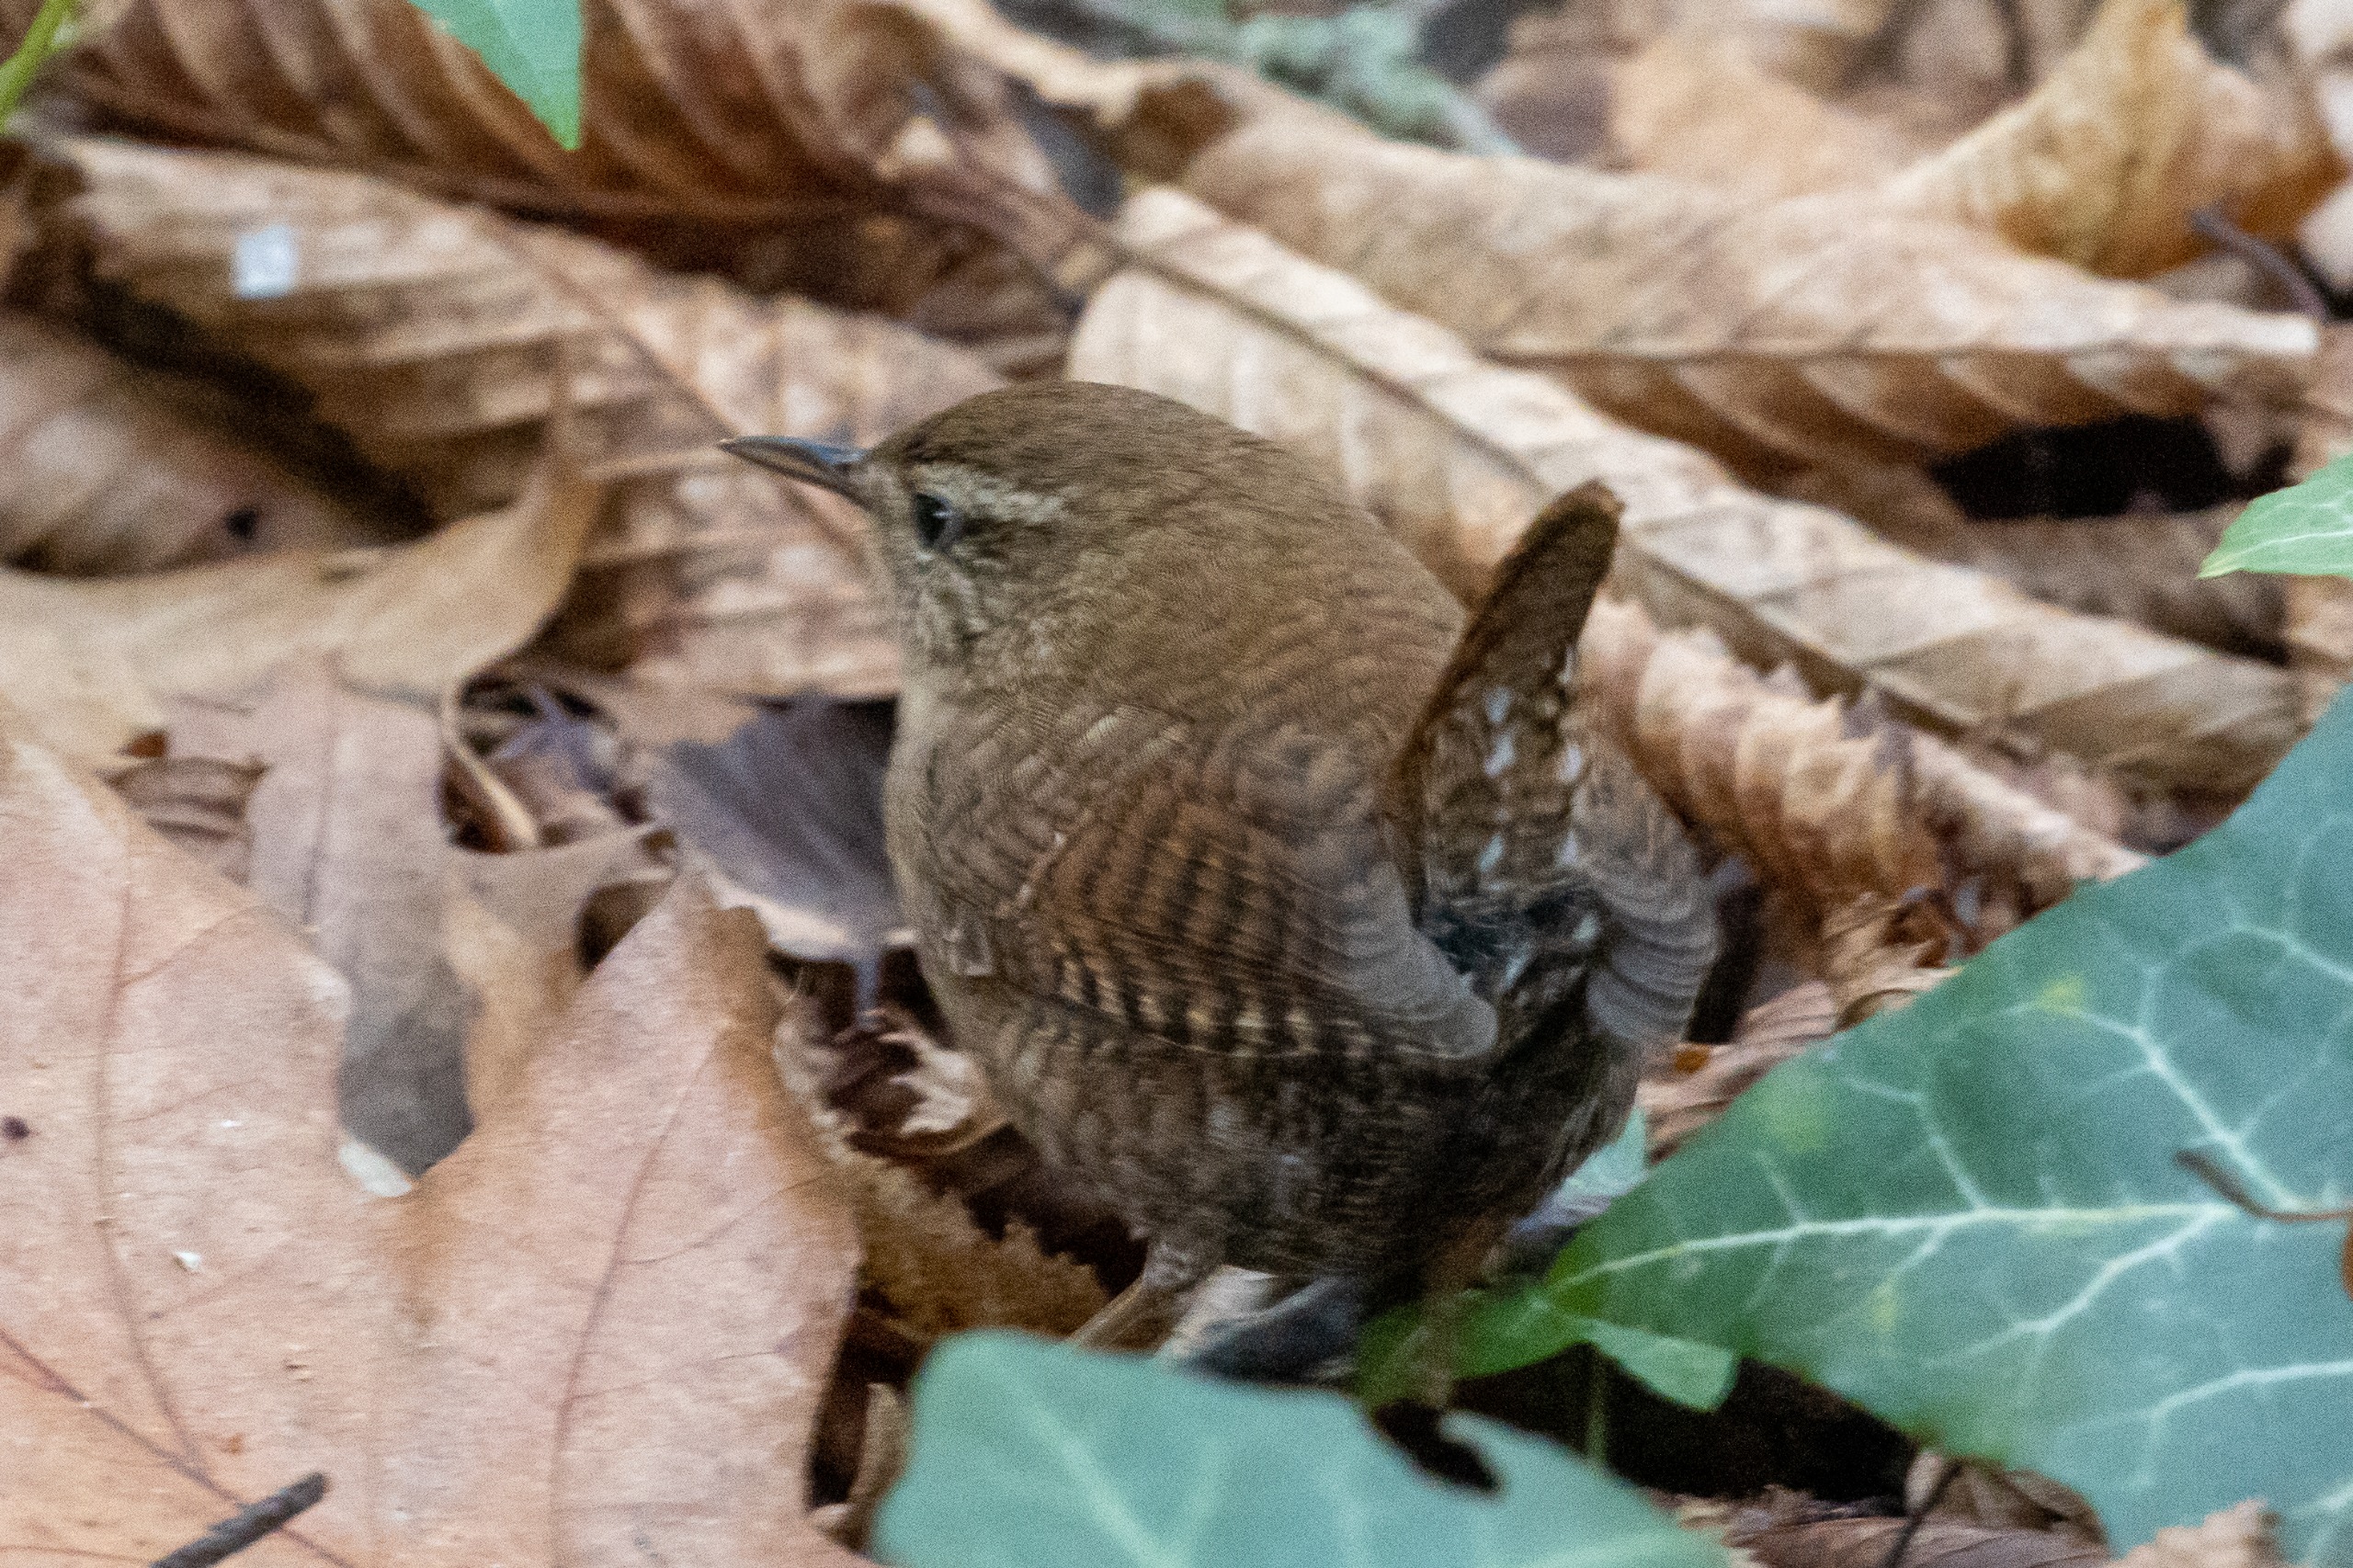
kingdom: Animalia
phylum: Chordata
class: Aves
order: Passeriformes
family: Troglodytidae
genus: Troglodytes
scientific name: Troglodytes troglodytes
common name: Gærdesmutte
